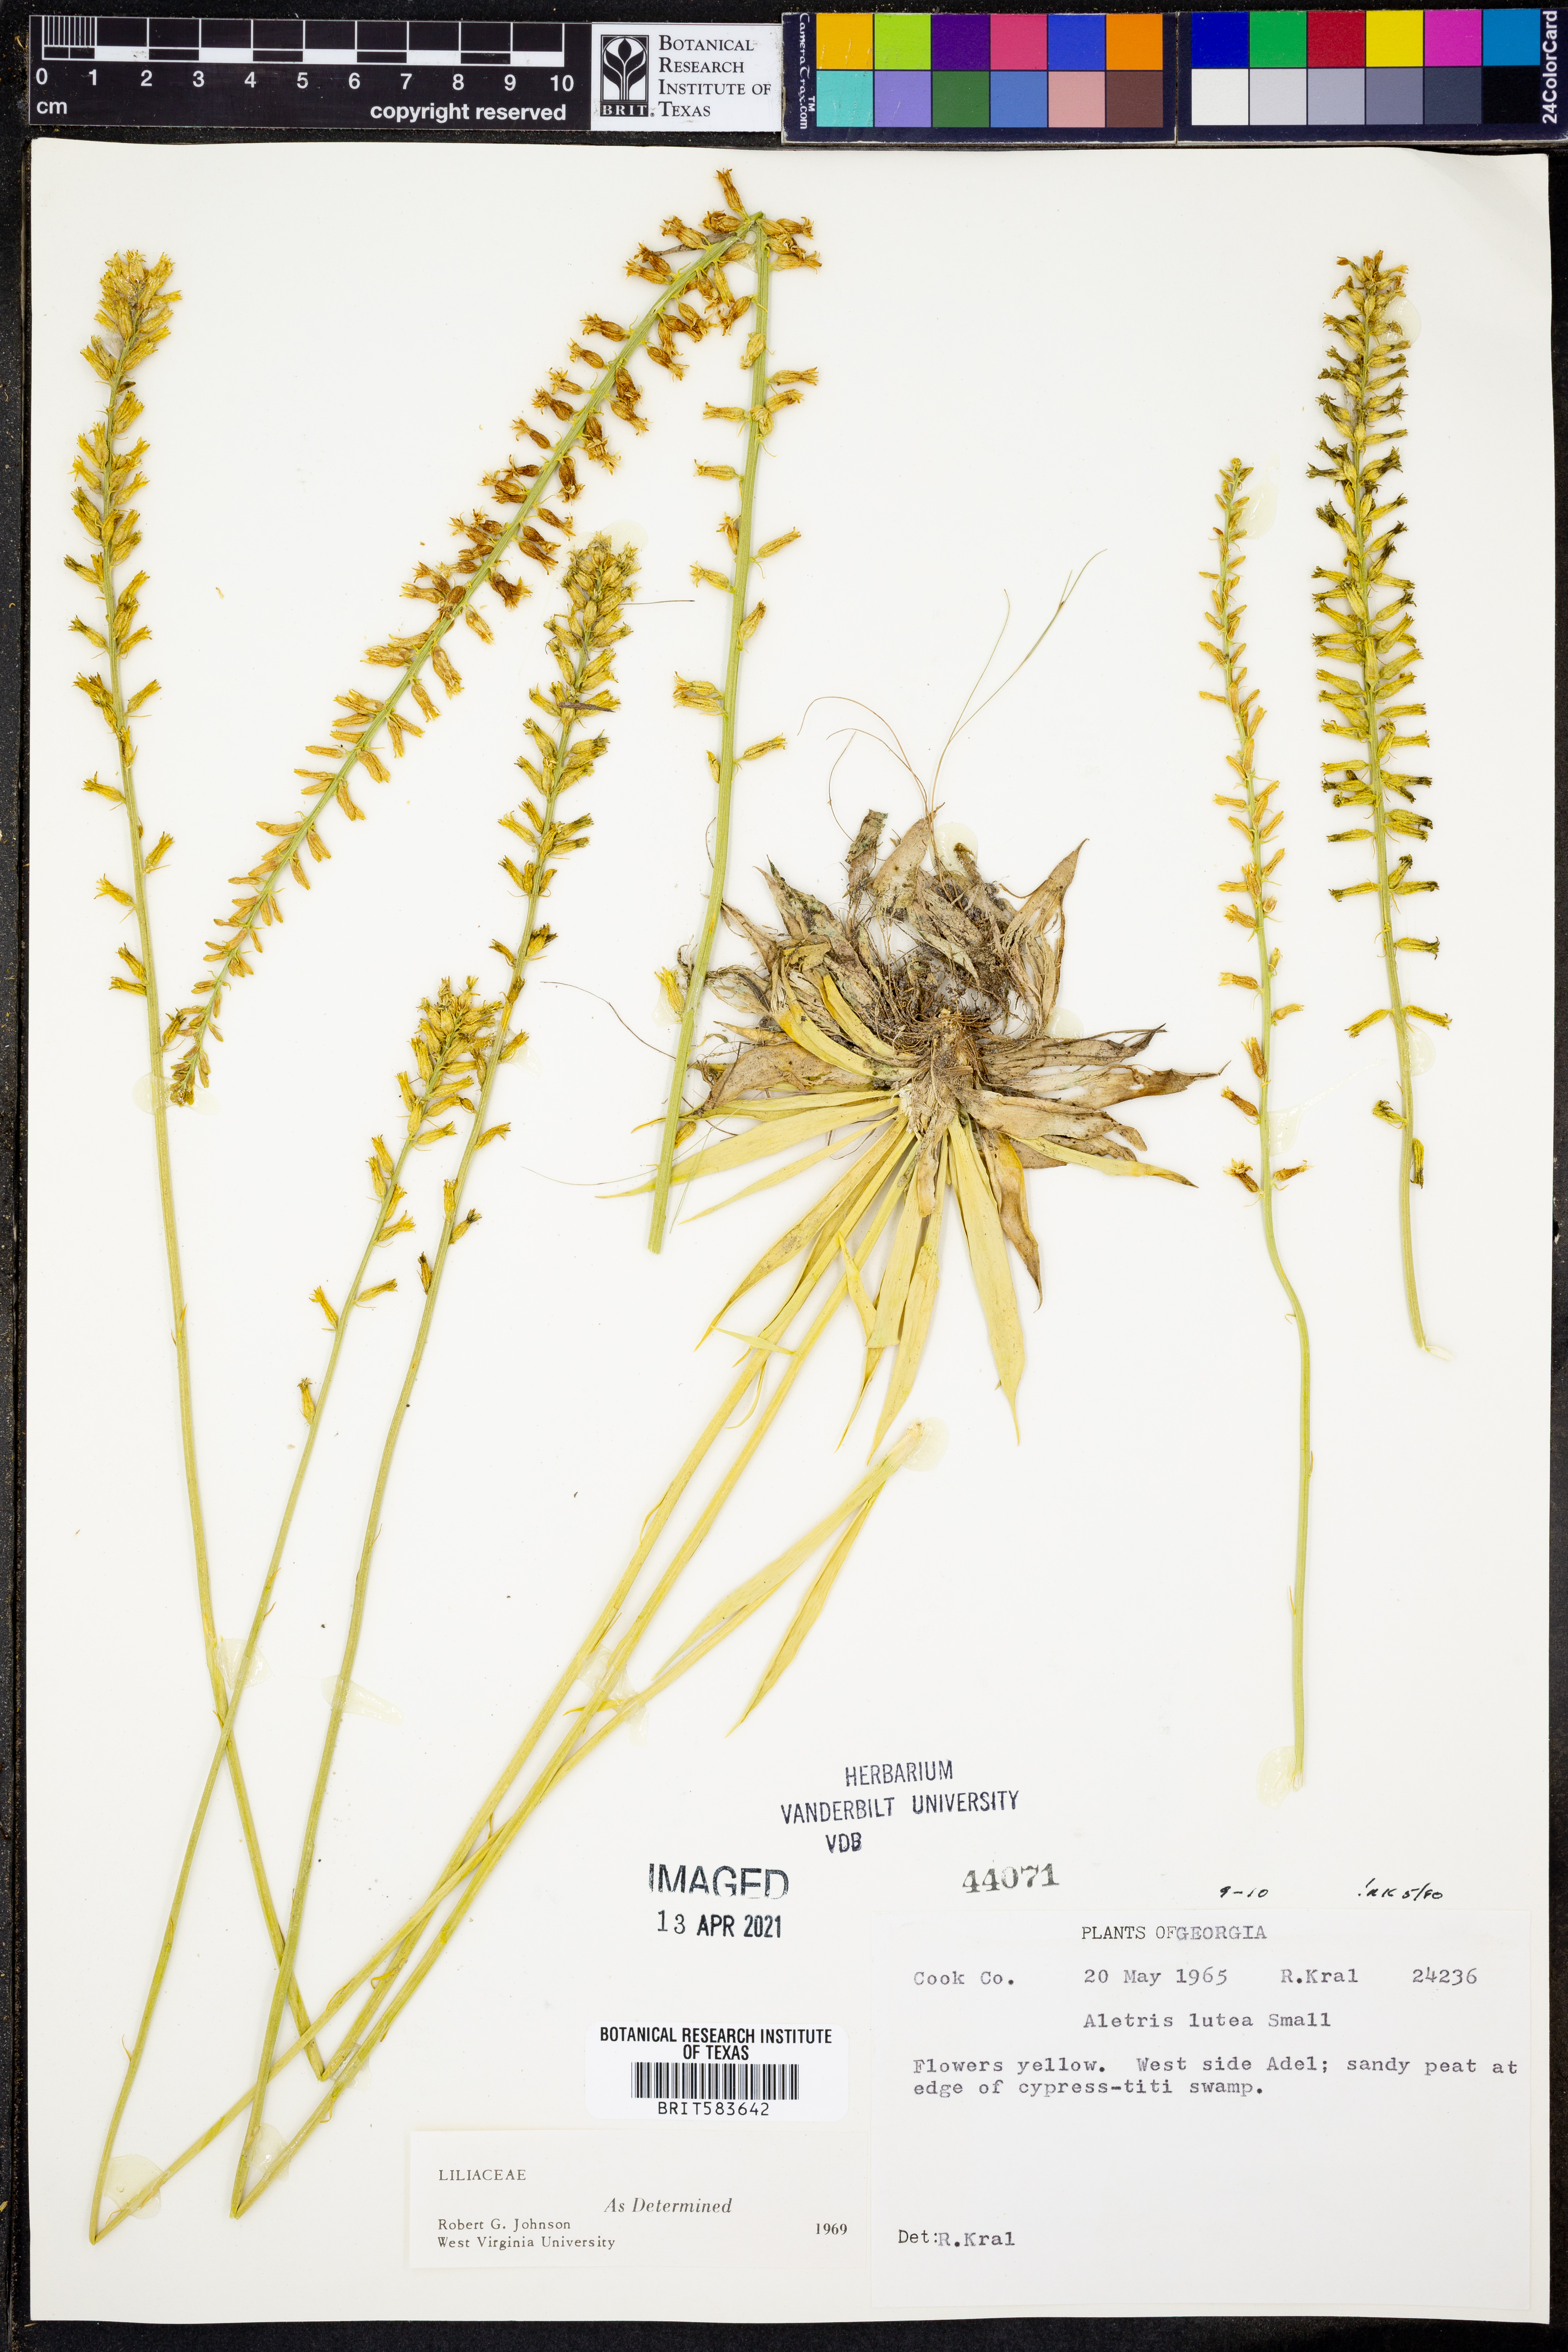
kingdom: Plantae
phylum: Tracheophyta
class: Liliopsida
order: Dioscoreales
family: Nartheciaceae
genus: Aletris
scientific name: Aletris lutea
